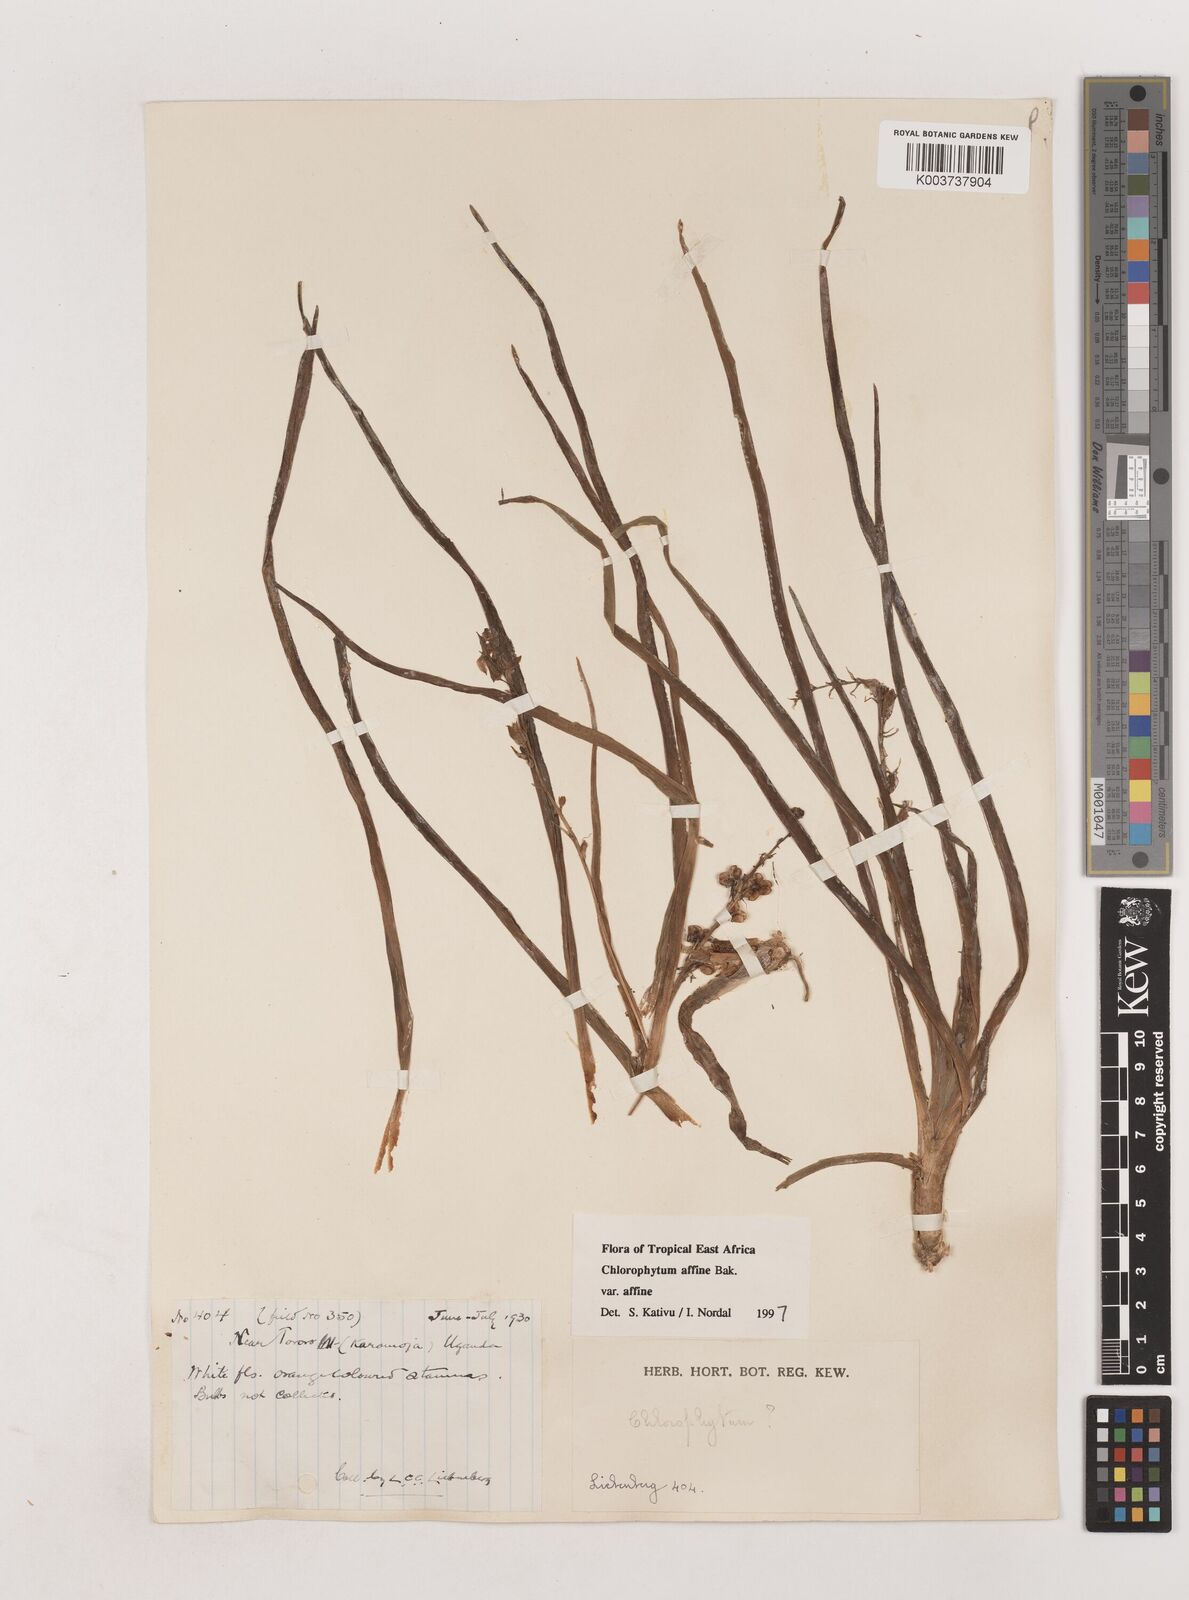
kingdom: Plantae
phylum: Tracheophyta
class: Liliopsida
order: Asparagales
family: Asparagaceae
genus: Chlorophytum
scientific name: Chlorophytum affine
